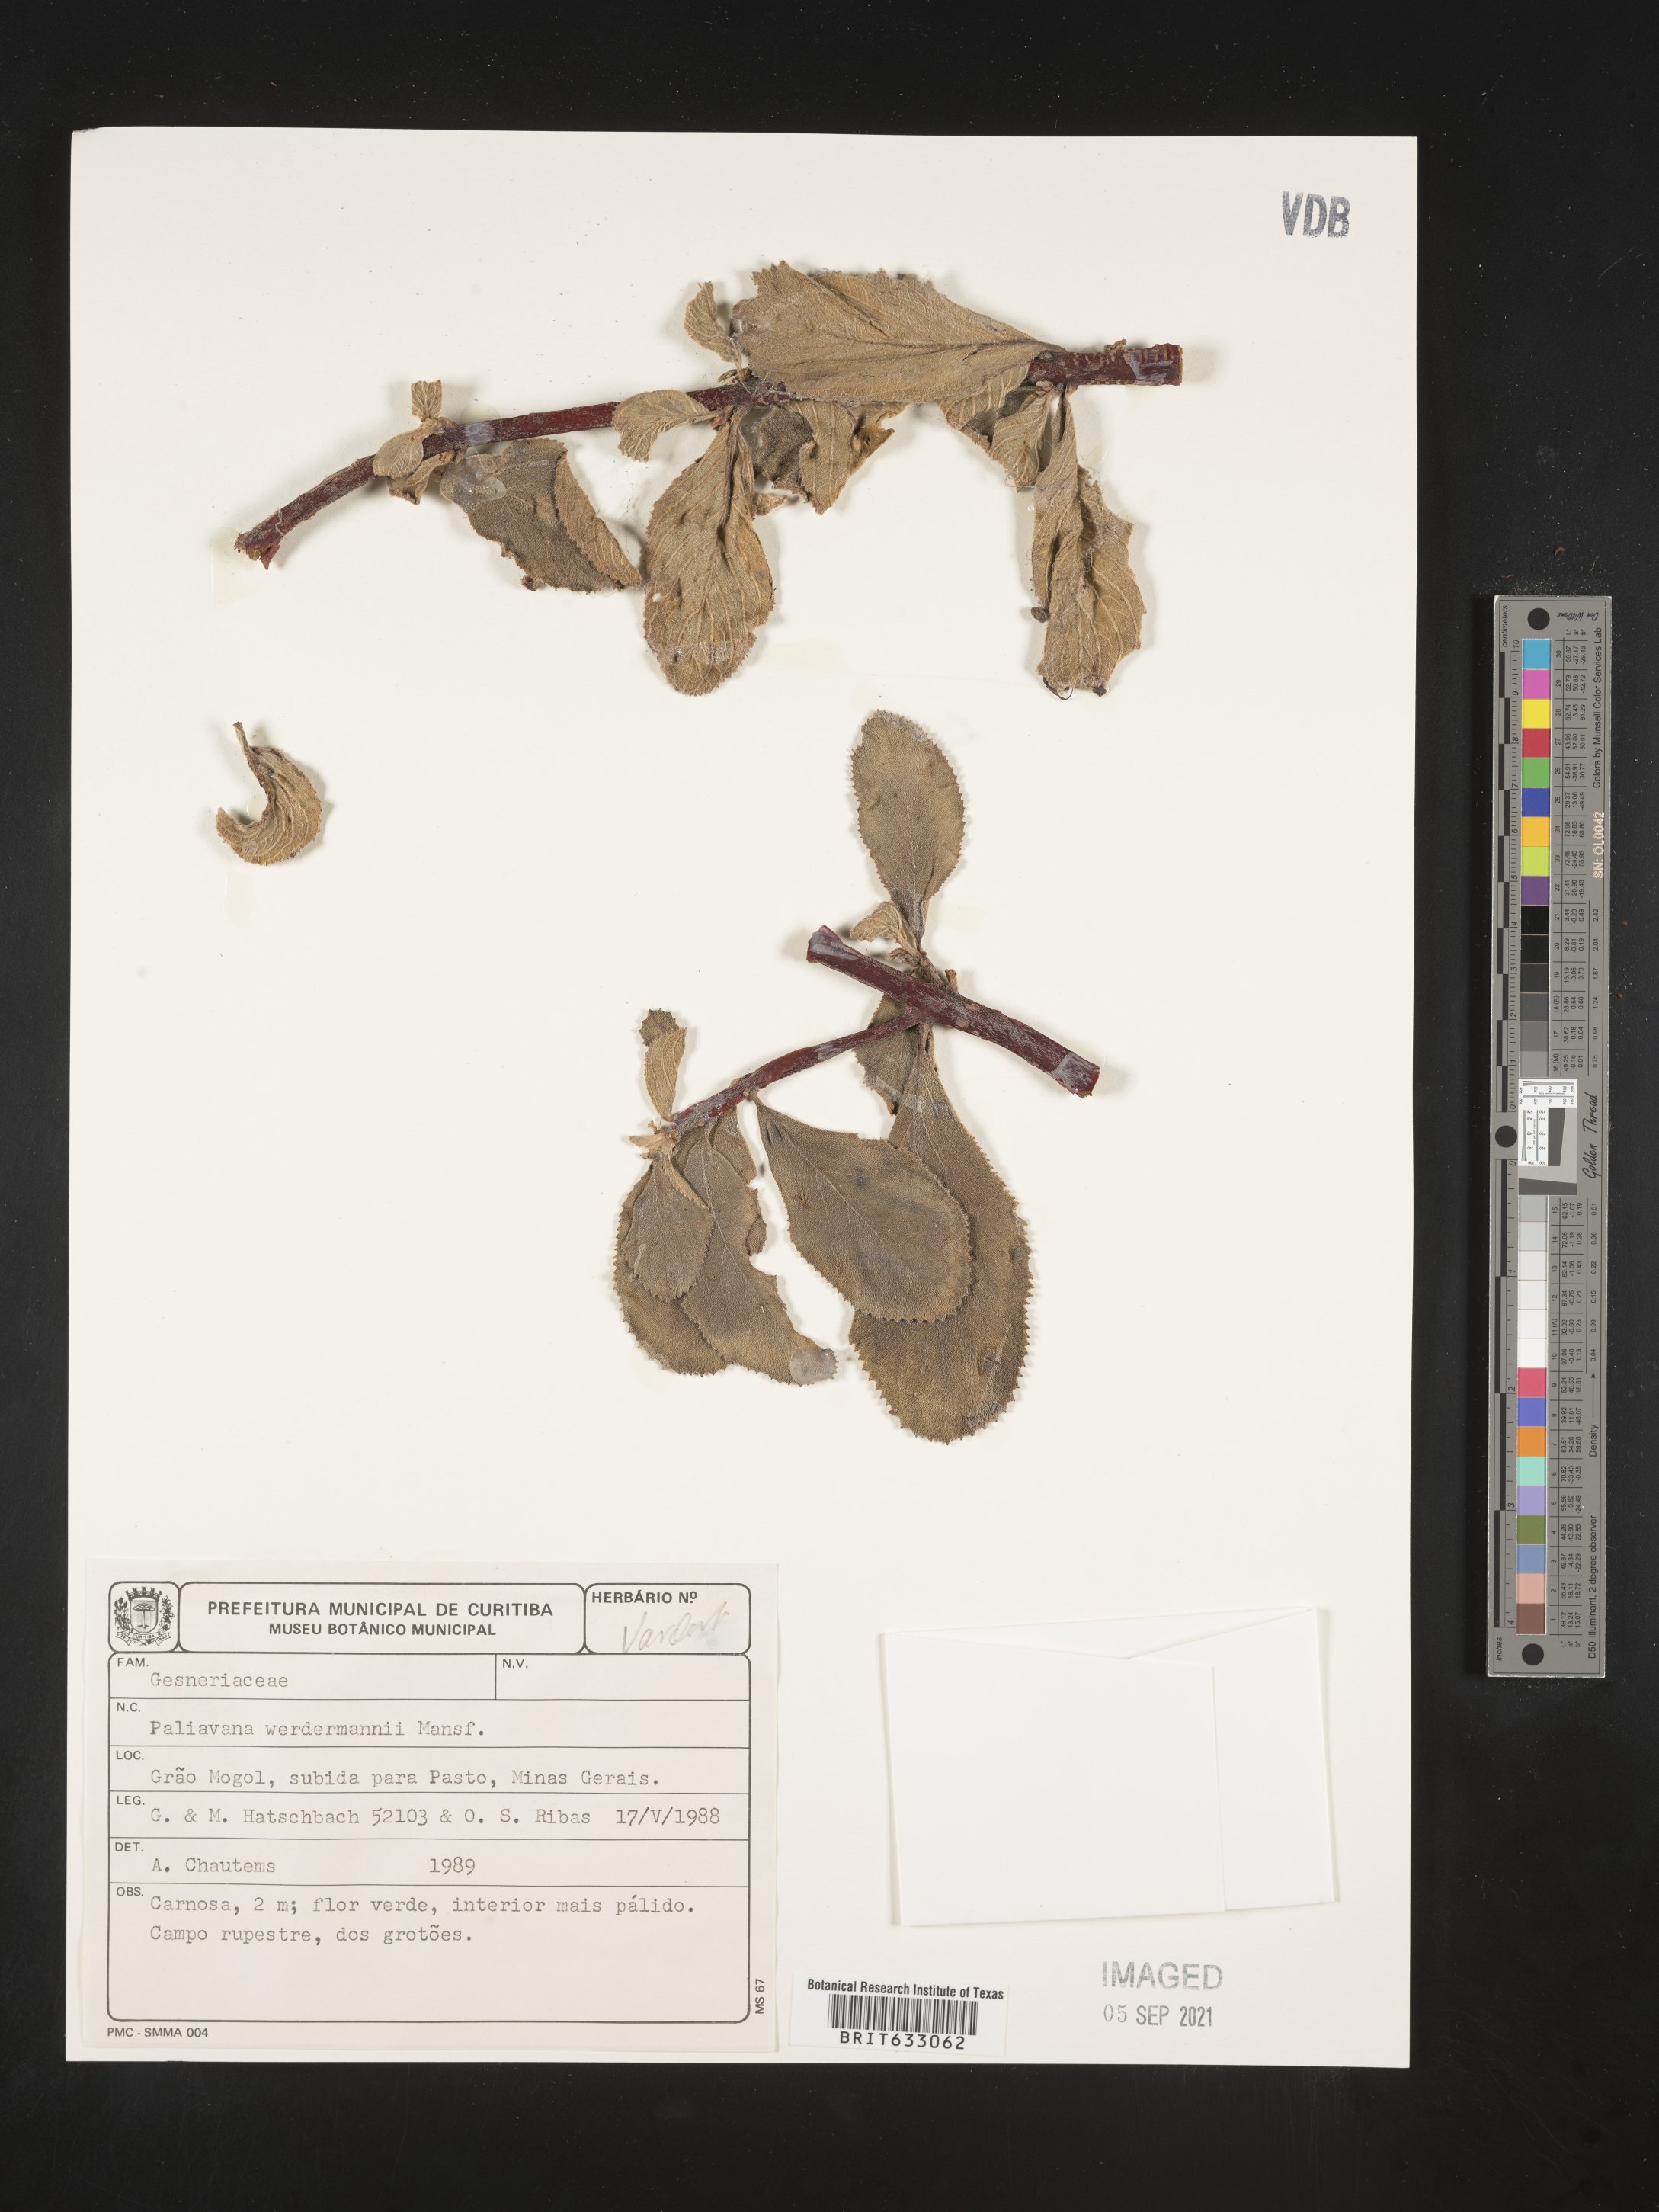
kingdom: Plantae
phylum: Tracheophyta
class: Magnoliopsida
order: Lamiales
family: Gesneriaceae
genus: Paliavana
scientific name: Paliavana werdermannii
